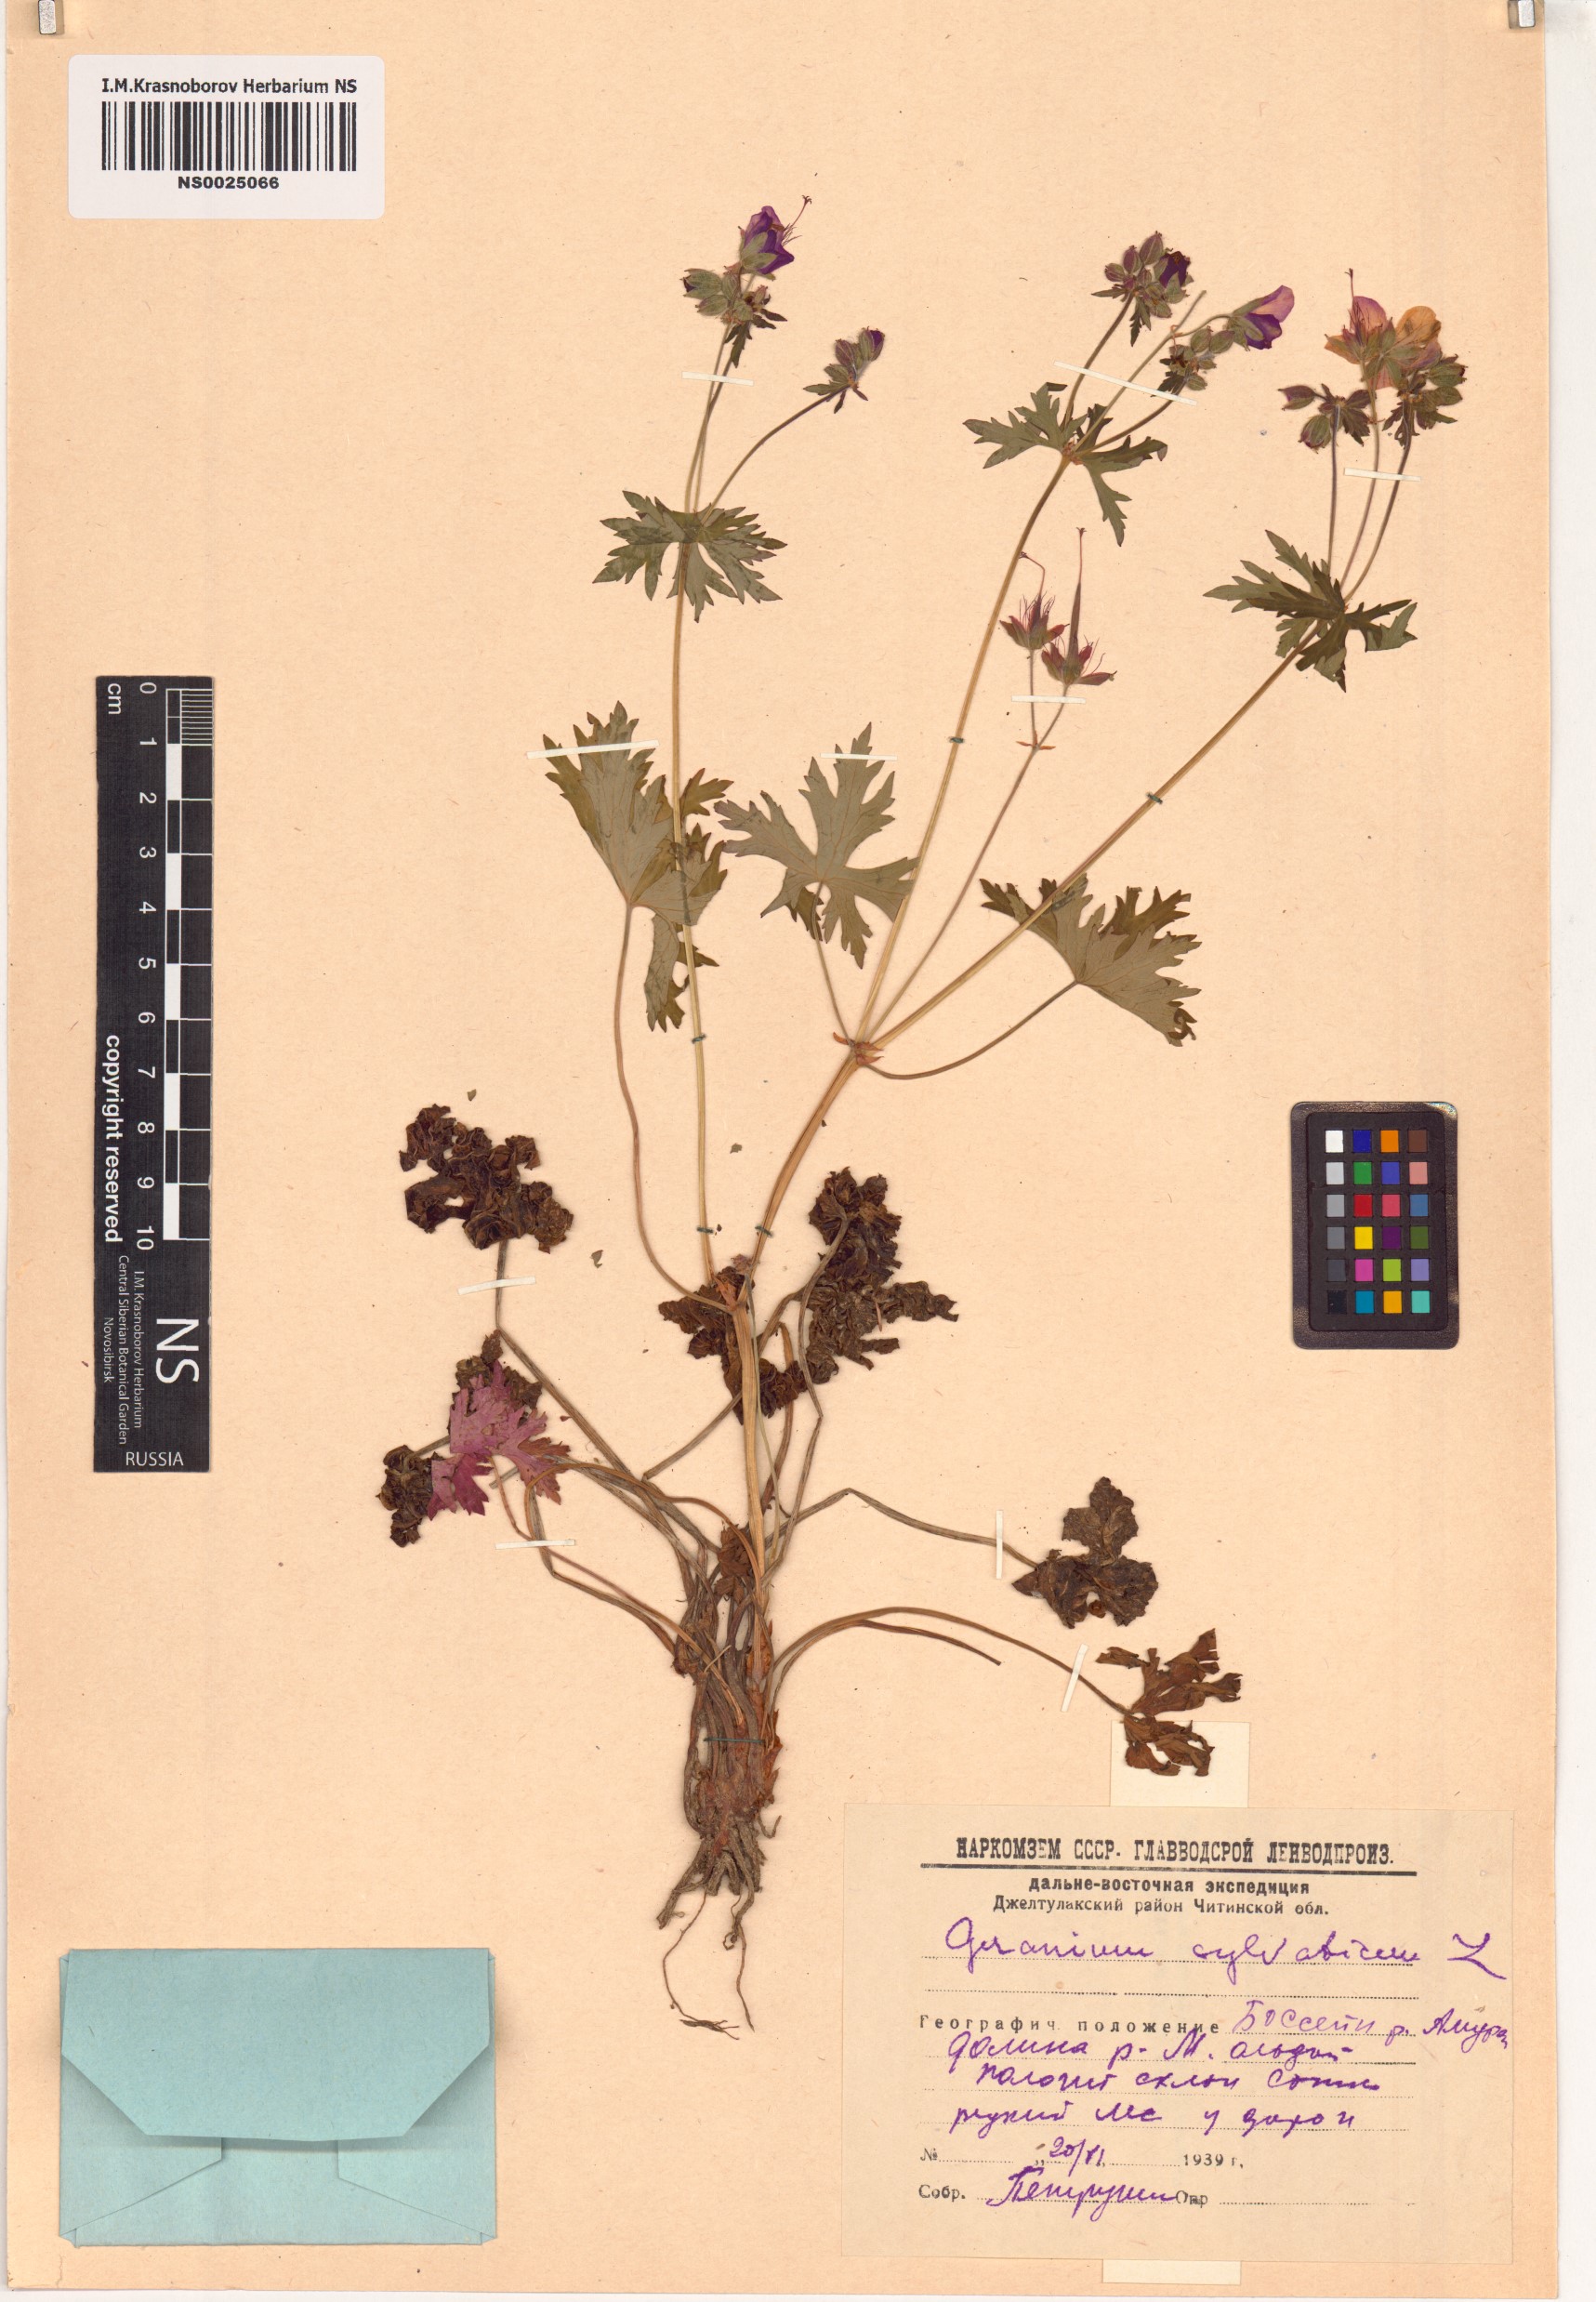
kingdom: Plantae
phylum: Tracheophyta
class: Magnoliopsida
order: Geraniales
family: Geraniaceae
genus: Geranium
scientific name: Geranium sylvaticum
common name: Wood crane's-bill
